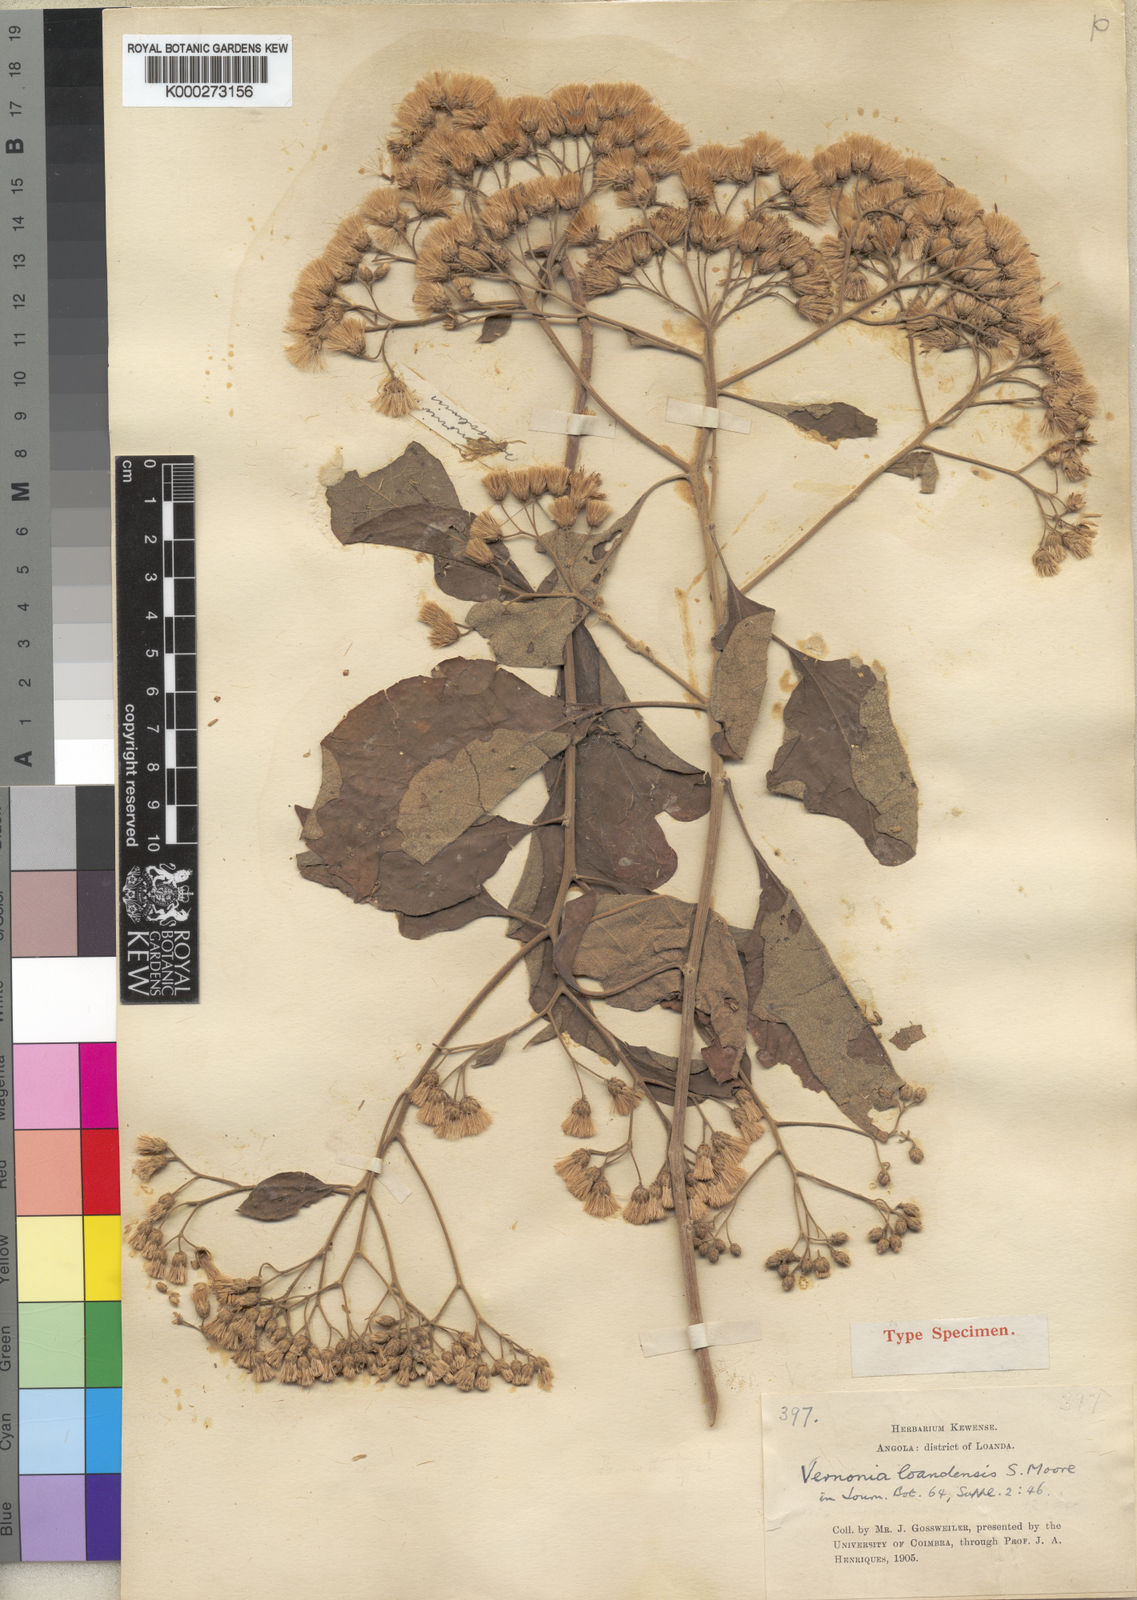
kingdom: Plantae
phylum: Tracheophyta
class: Magnoliopsida
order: Asterales
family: Asteraceae
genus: Vernonia
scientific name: Vernonia loandensis
